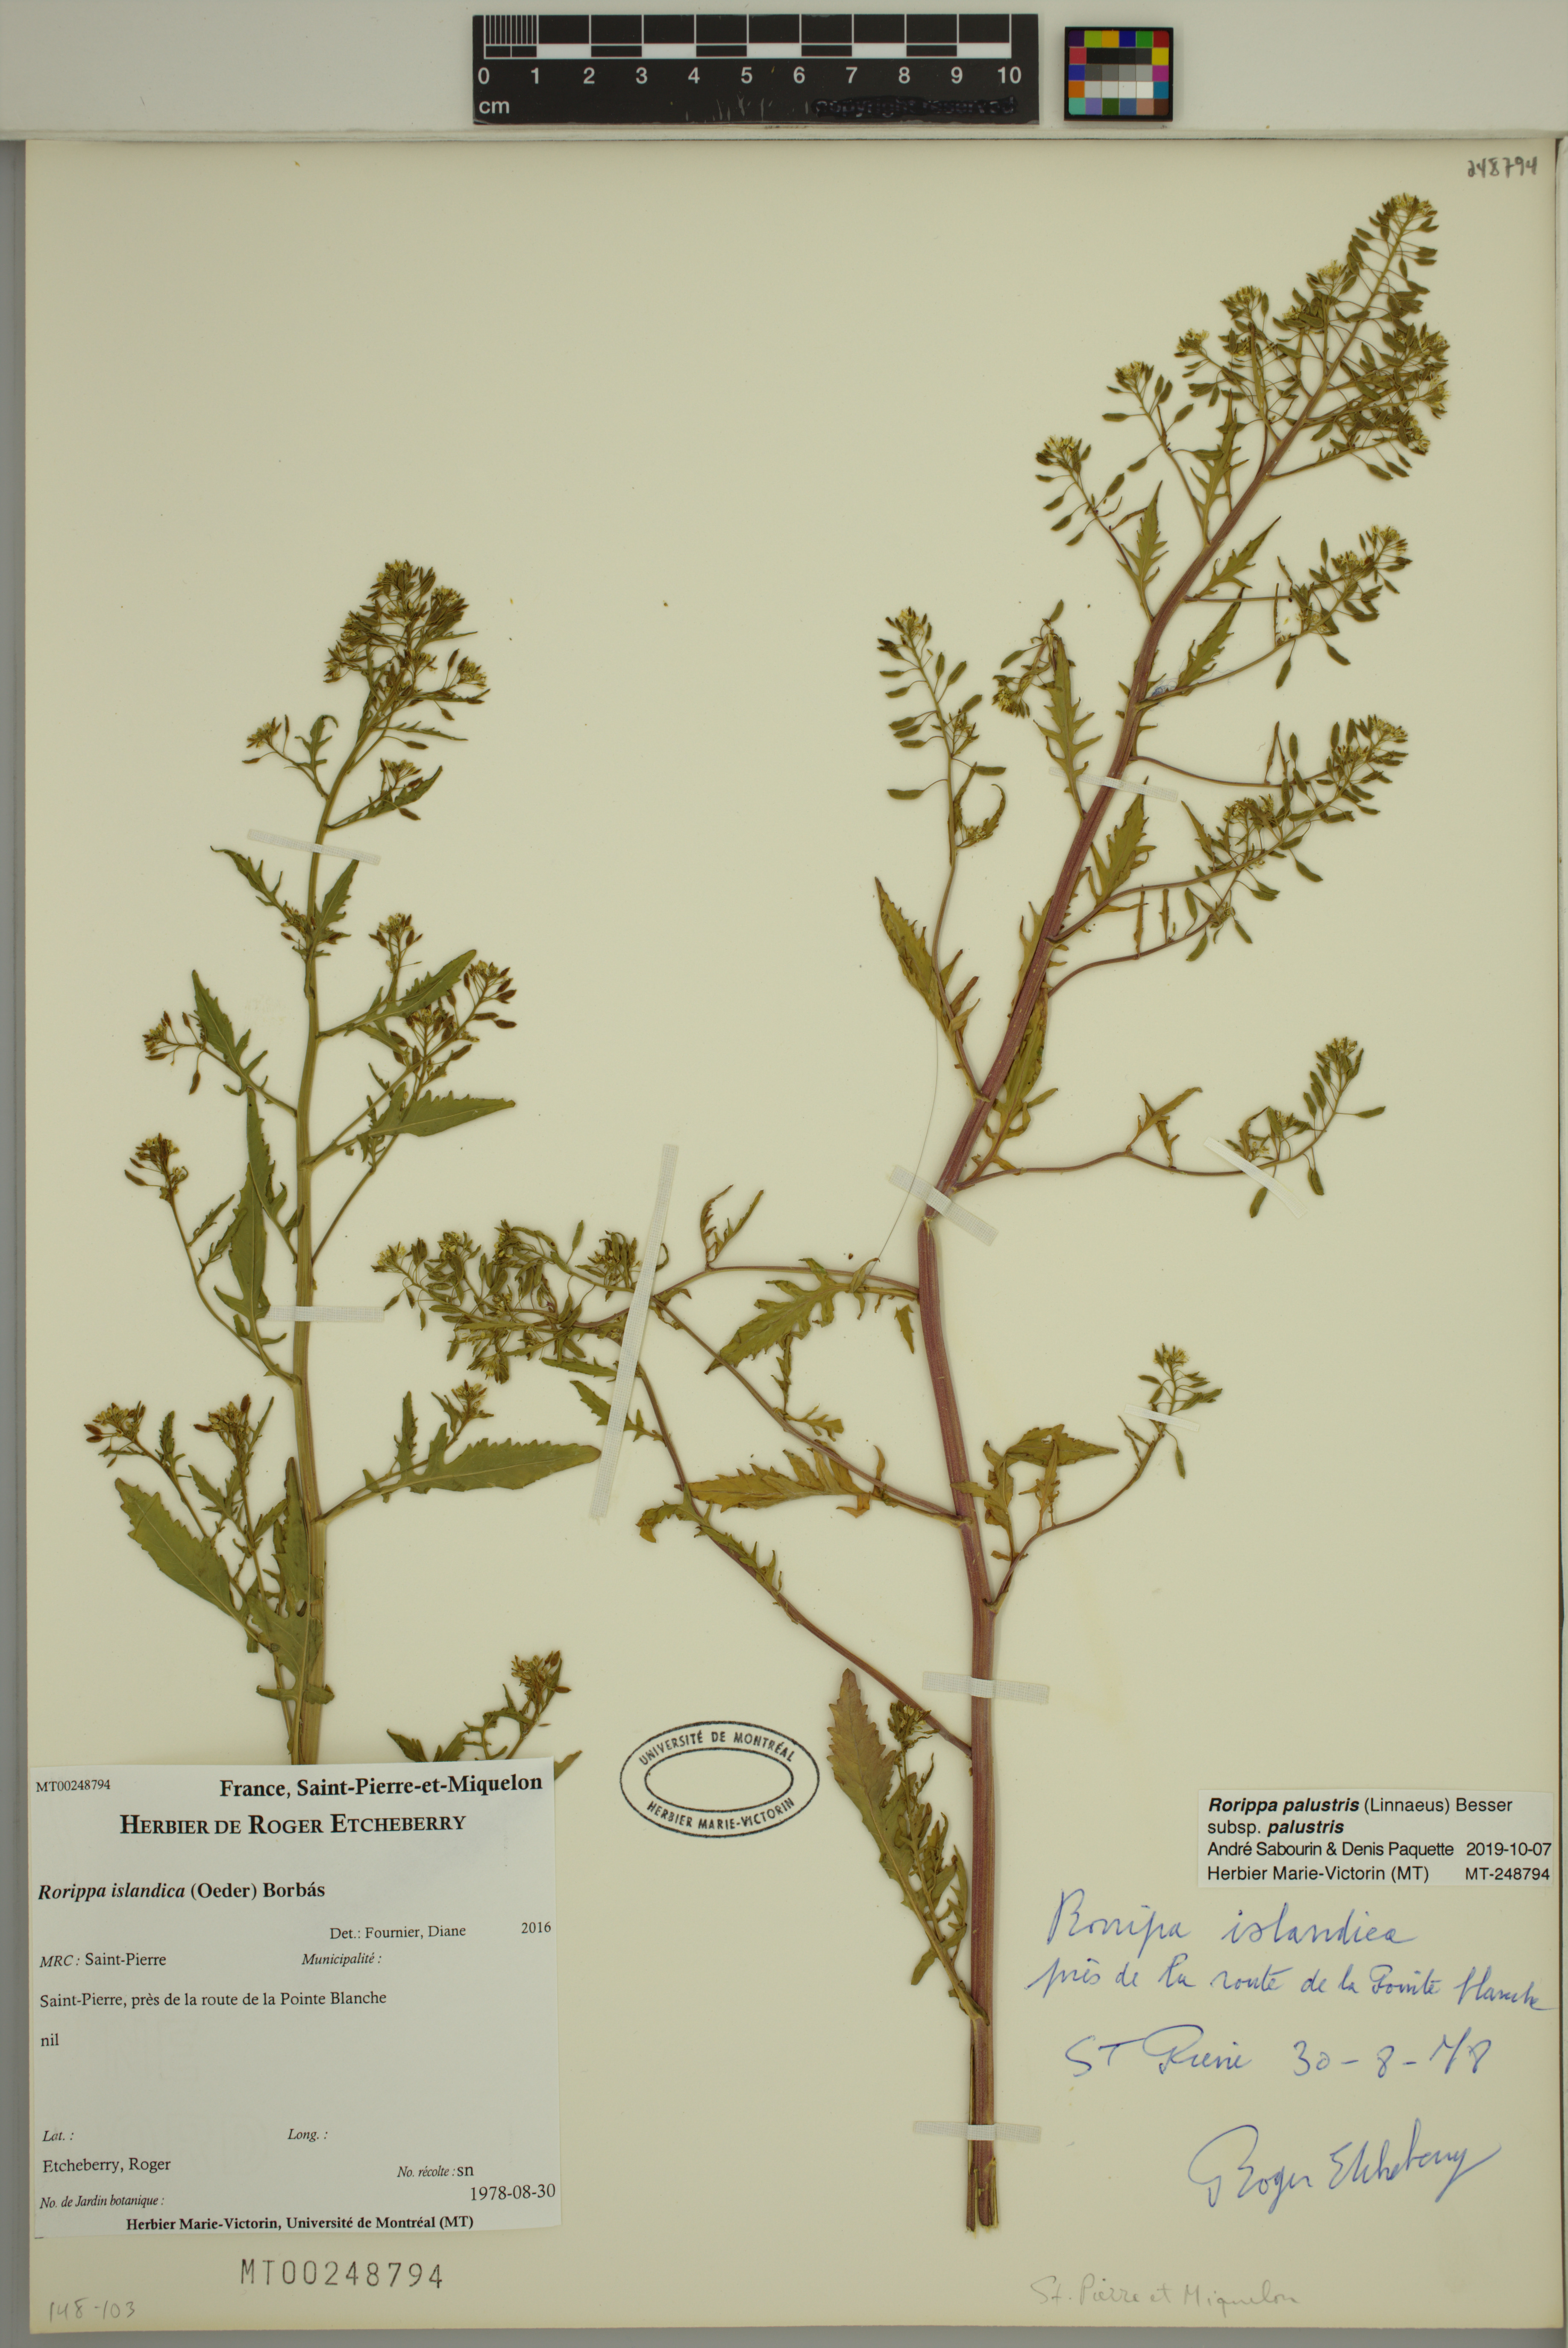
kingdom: Plantae
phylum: Tracheophyta
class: Magnoliopsida
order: Brassicales
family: Brassicaceae
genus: Rorippa
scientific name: Rorippa palustris
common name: Marsh yellow-cress
